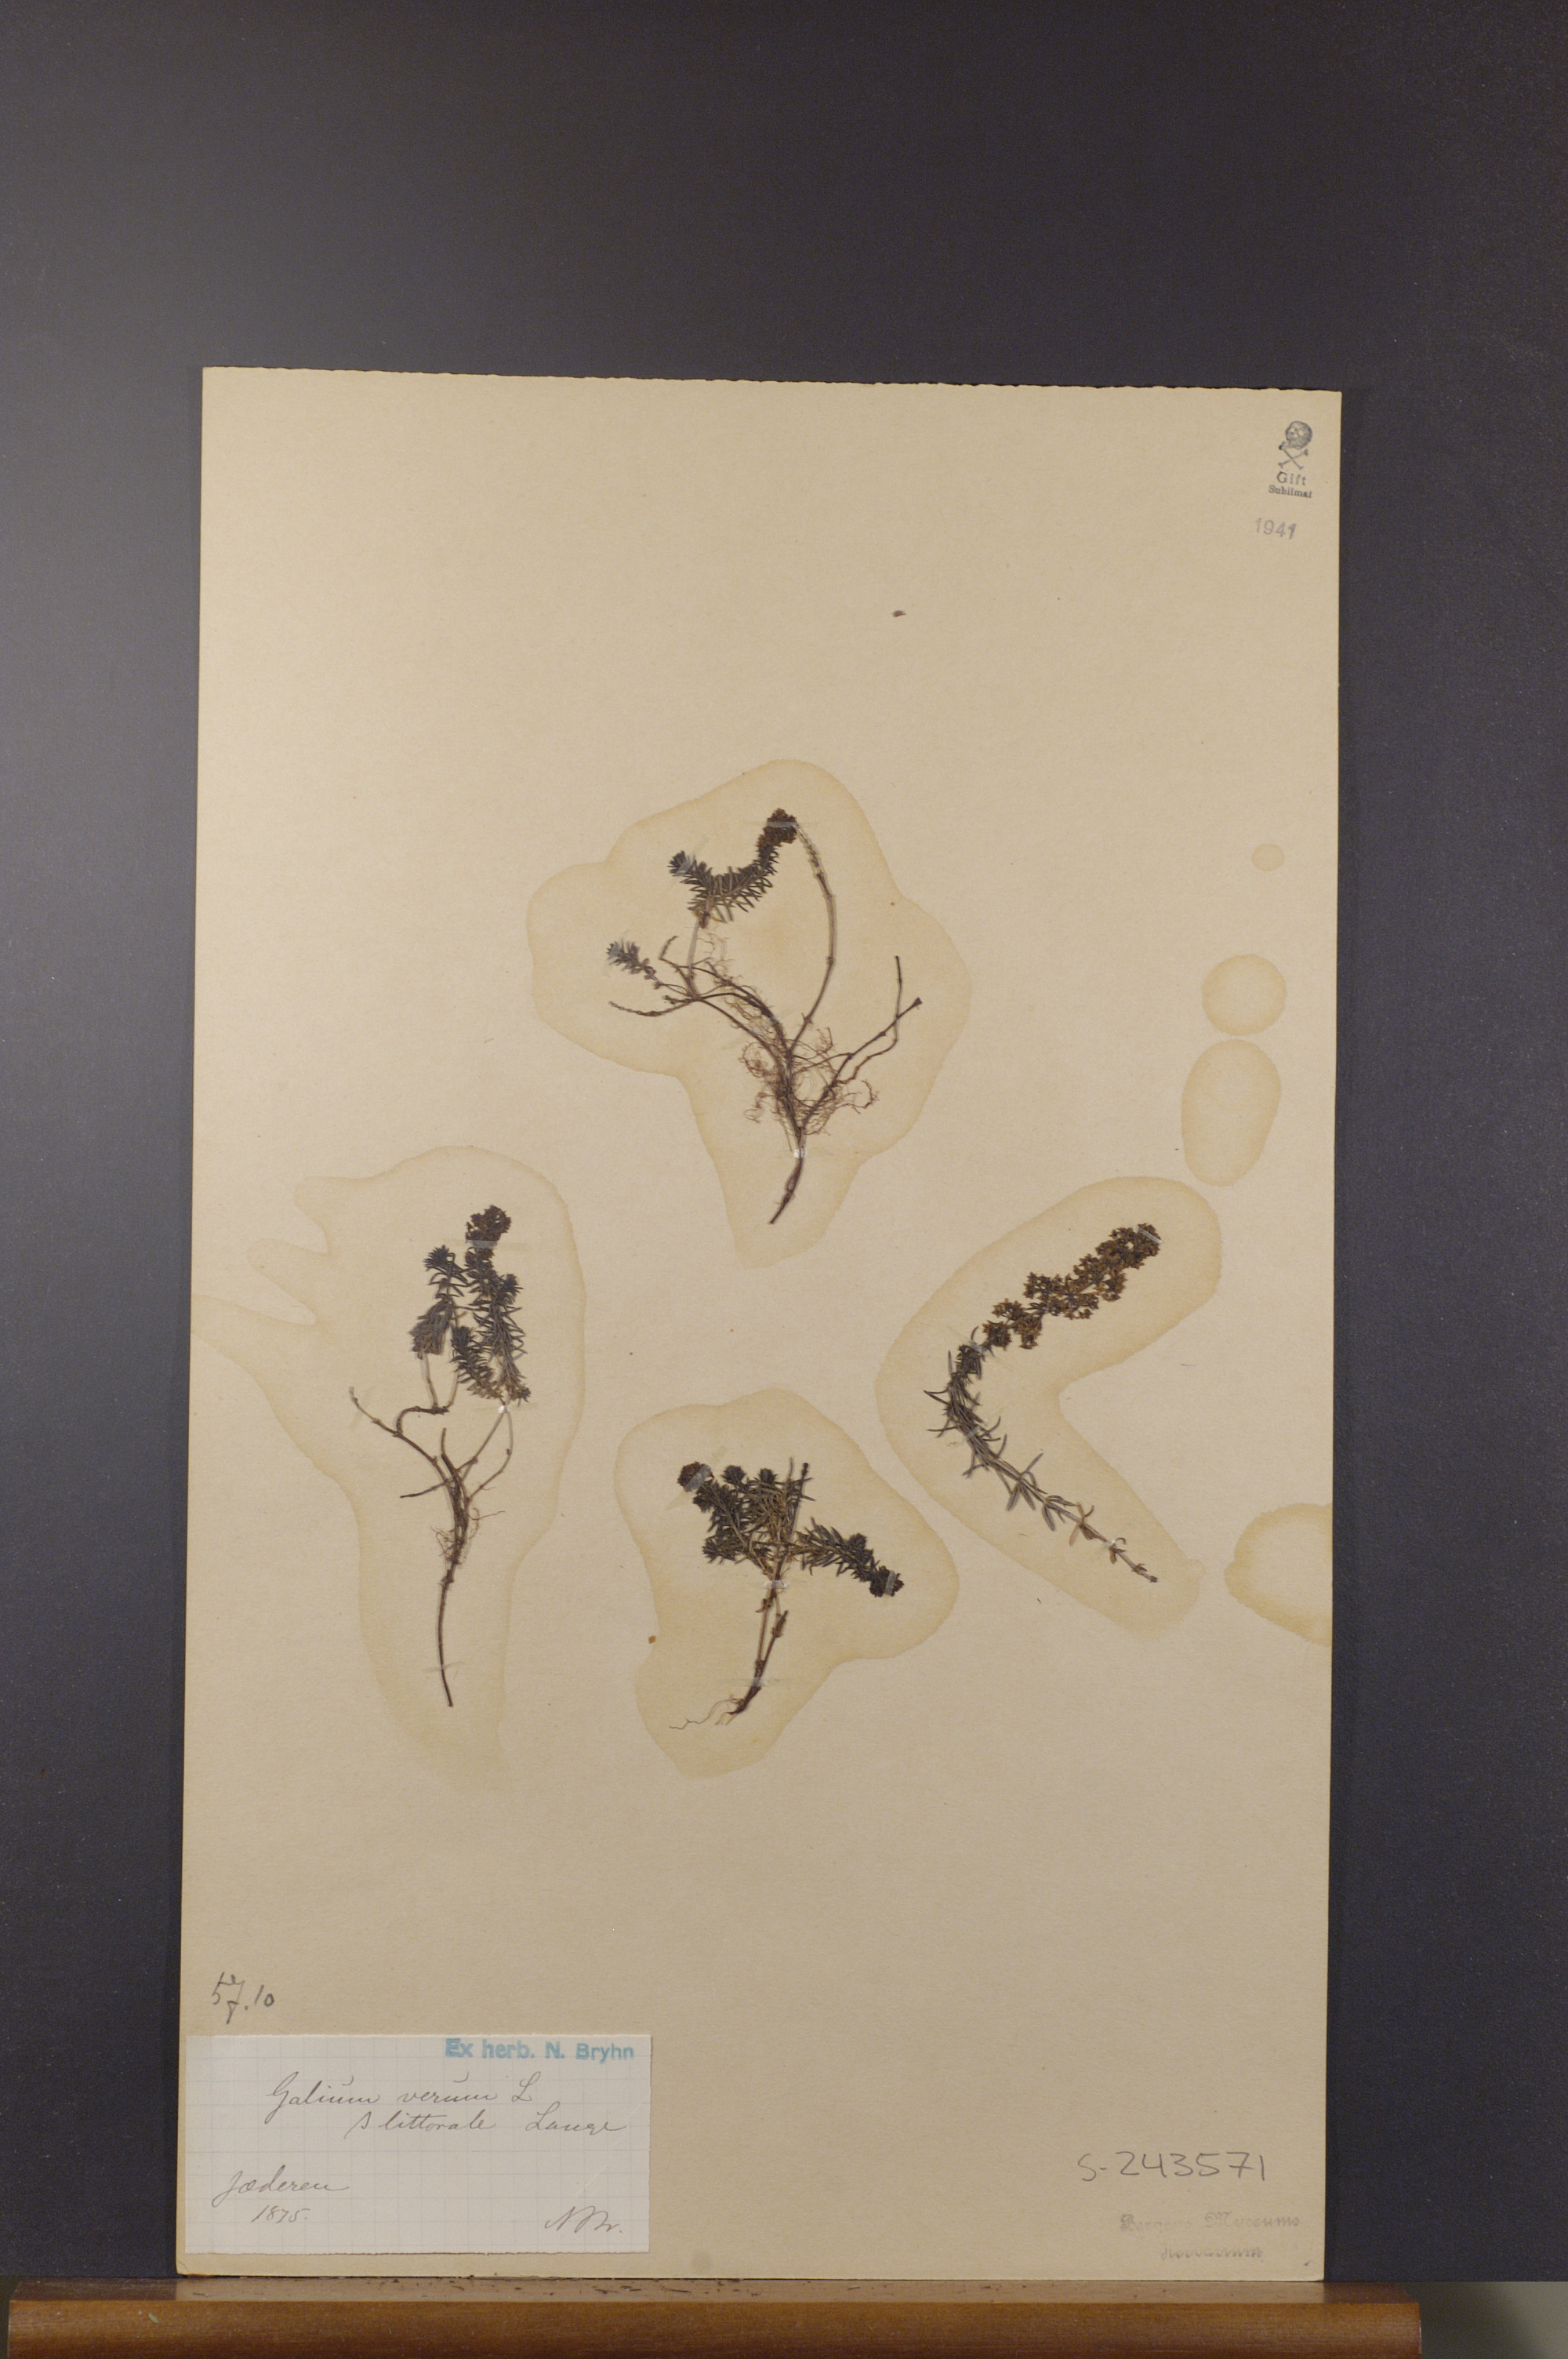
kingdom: Plantae
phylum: Tracheophyta
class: Magnoliopsida
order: Gentianales
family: Rubiaceae
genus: Galium
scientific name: Galium verum
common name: Lady's bedstraw
